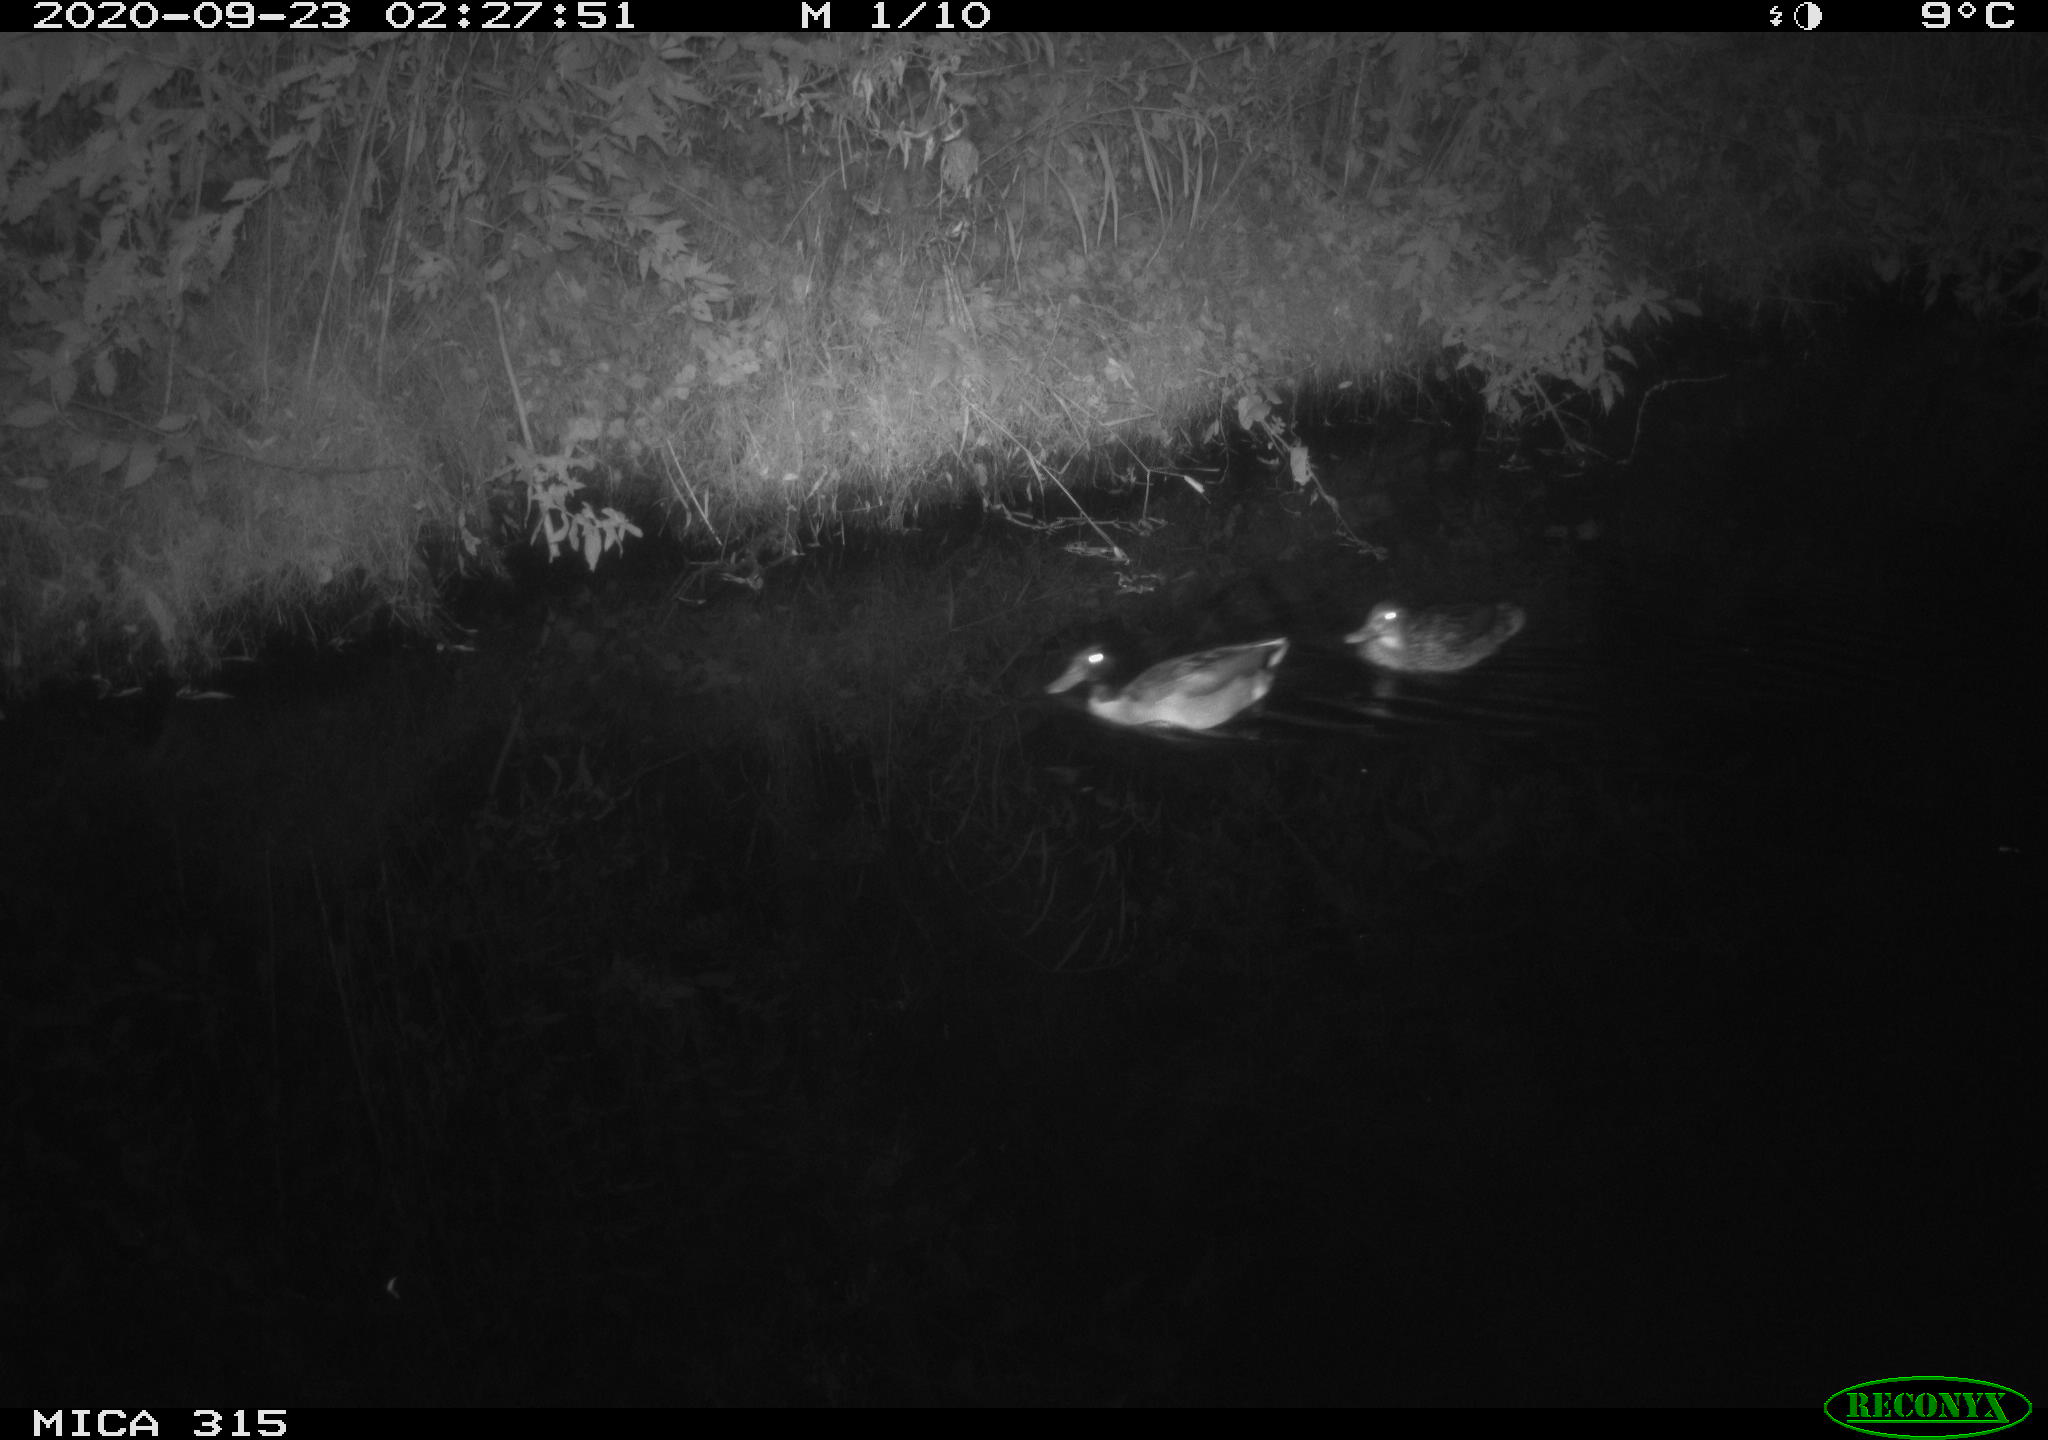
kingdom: Animalia
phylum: Chordata
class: Aves
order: Anseriformes
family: Anatidae
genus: Anas
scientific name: Anas platyrhynchos
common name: Mallard
